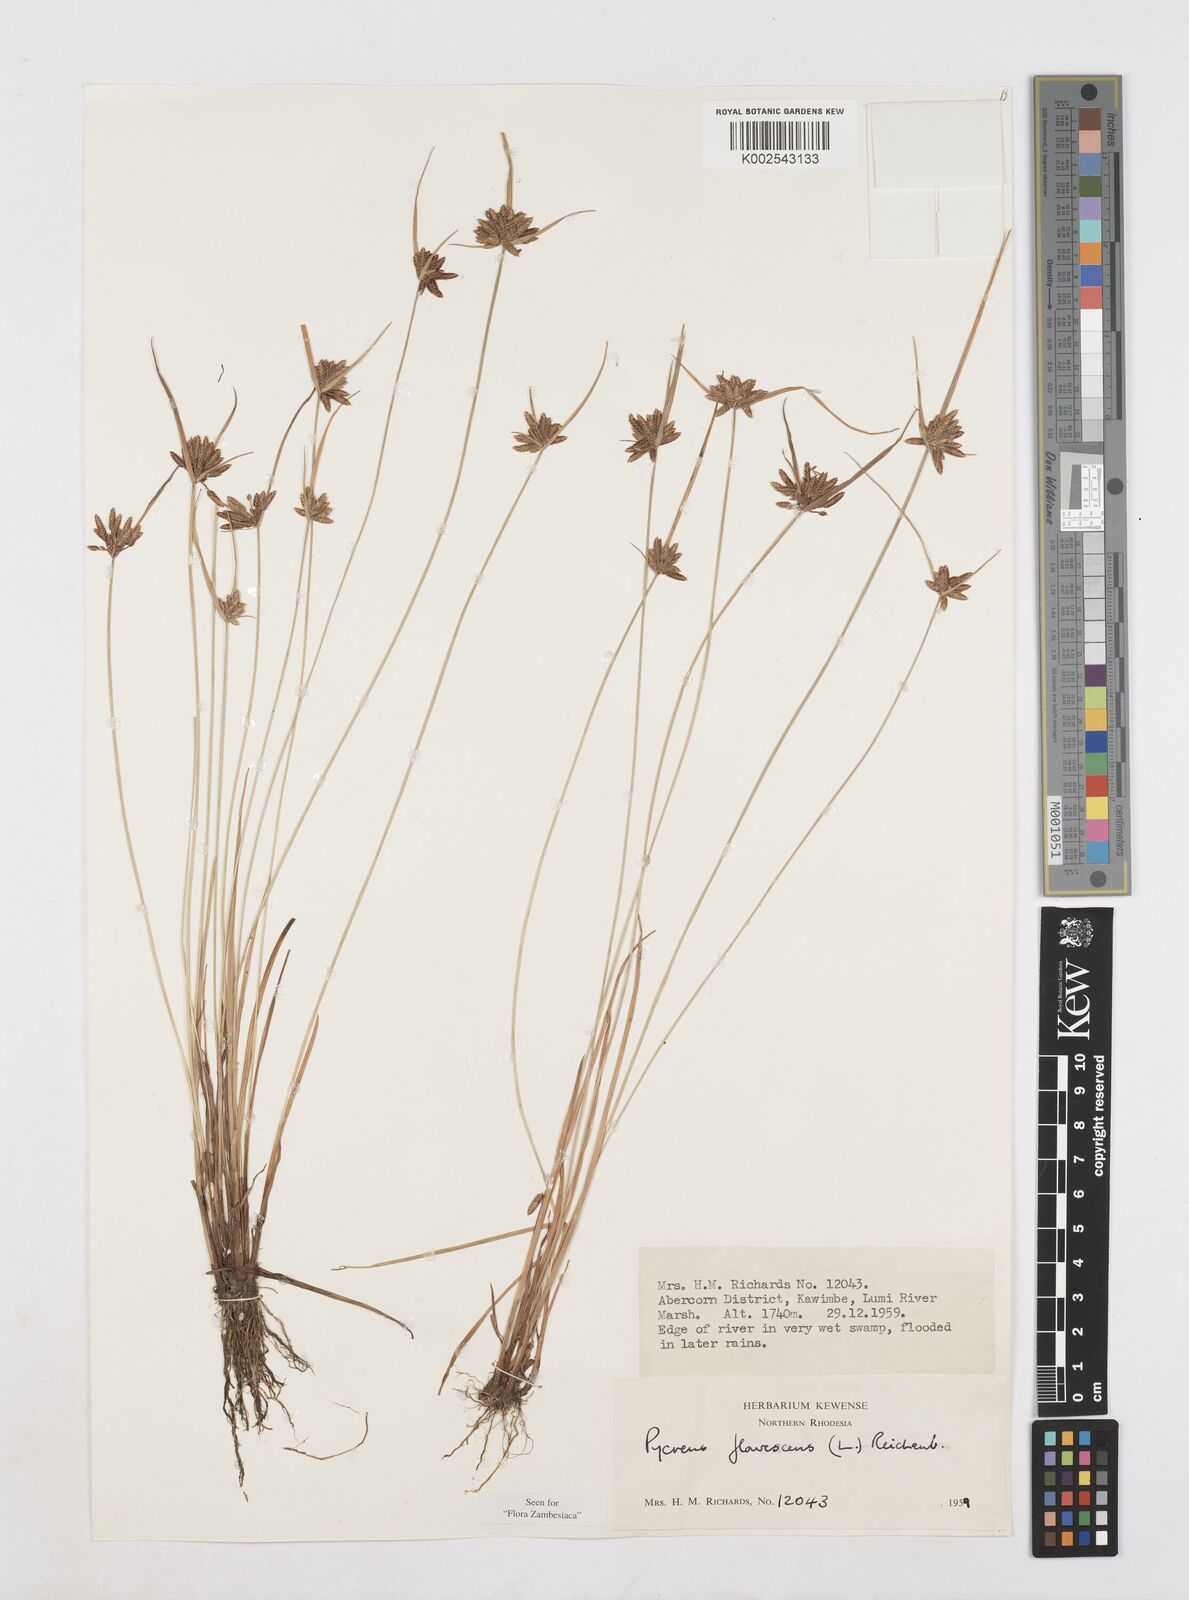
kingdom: Plantae
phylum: Tracheophyta
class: Liliopsida
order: Poales
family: Cyperaceae
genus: Cyperus
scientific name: Cyperus flavescens
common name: Yellow galingale
